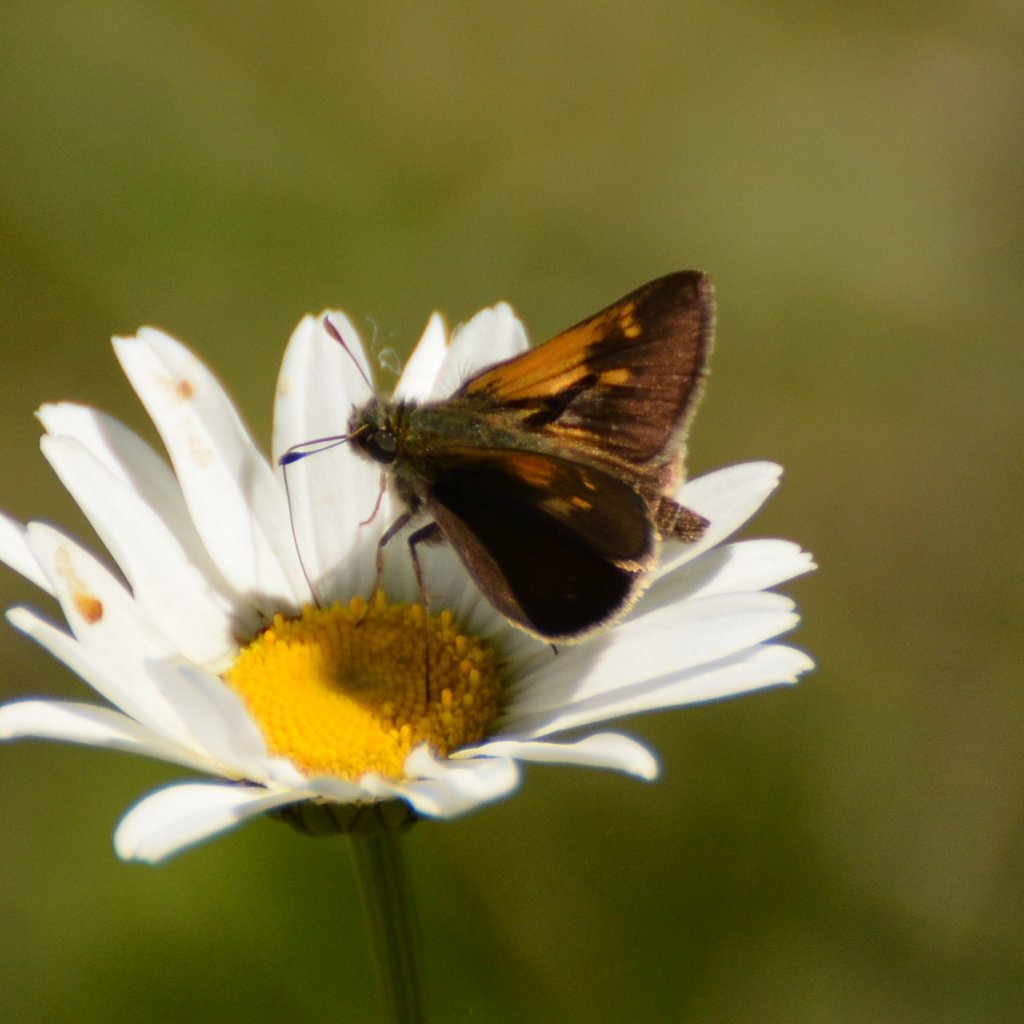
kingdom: Animalia
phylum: Arthropoda
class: Insecta
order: Lepidoptera
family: Hesperiidae
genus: Polites
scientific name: Polites themistocles
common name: Tawny-edged Skipper
